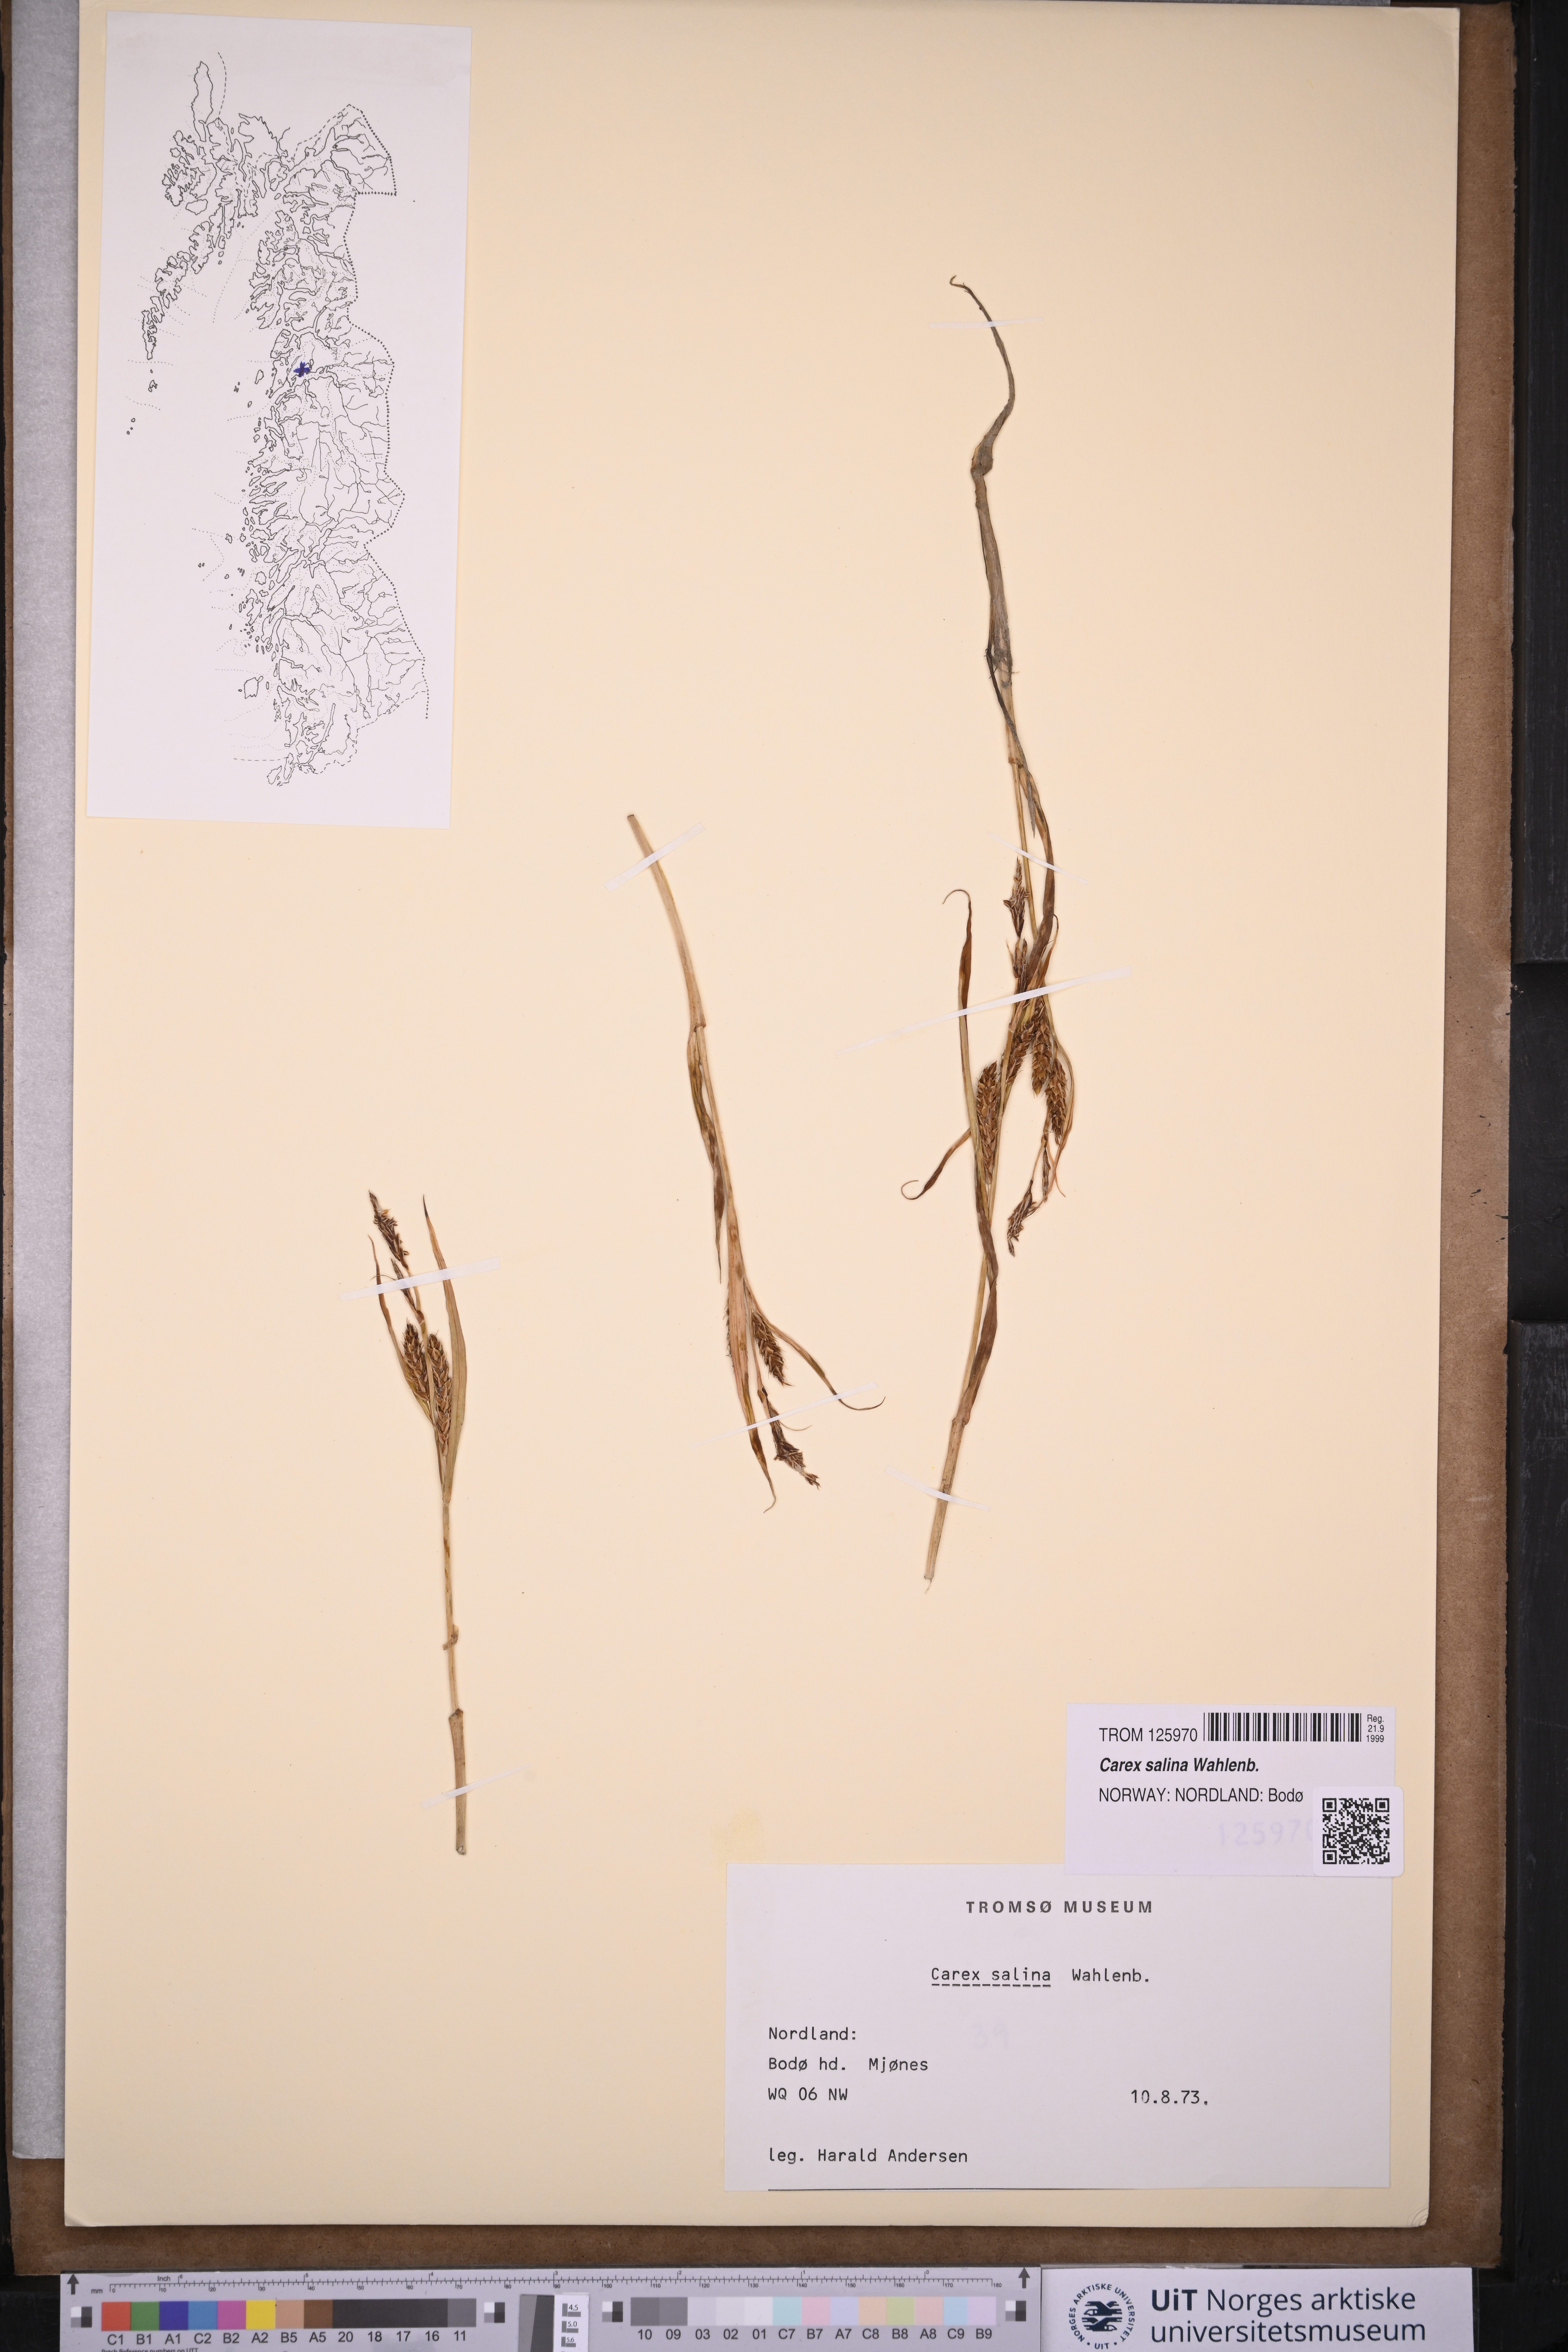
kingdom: Plantae
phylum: Tracheophyta
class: Liliopsida
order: Poales
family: Cyperaceae
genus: Carex
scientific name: Carex salina
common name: Saltmarsh sedge
